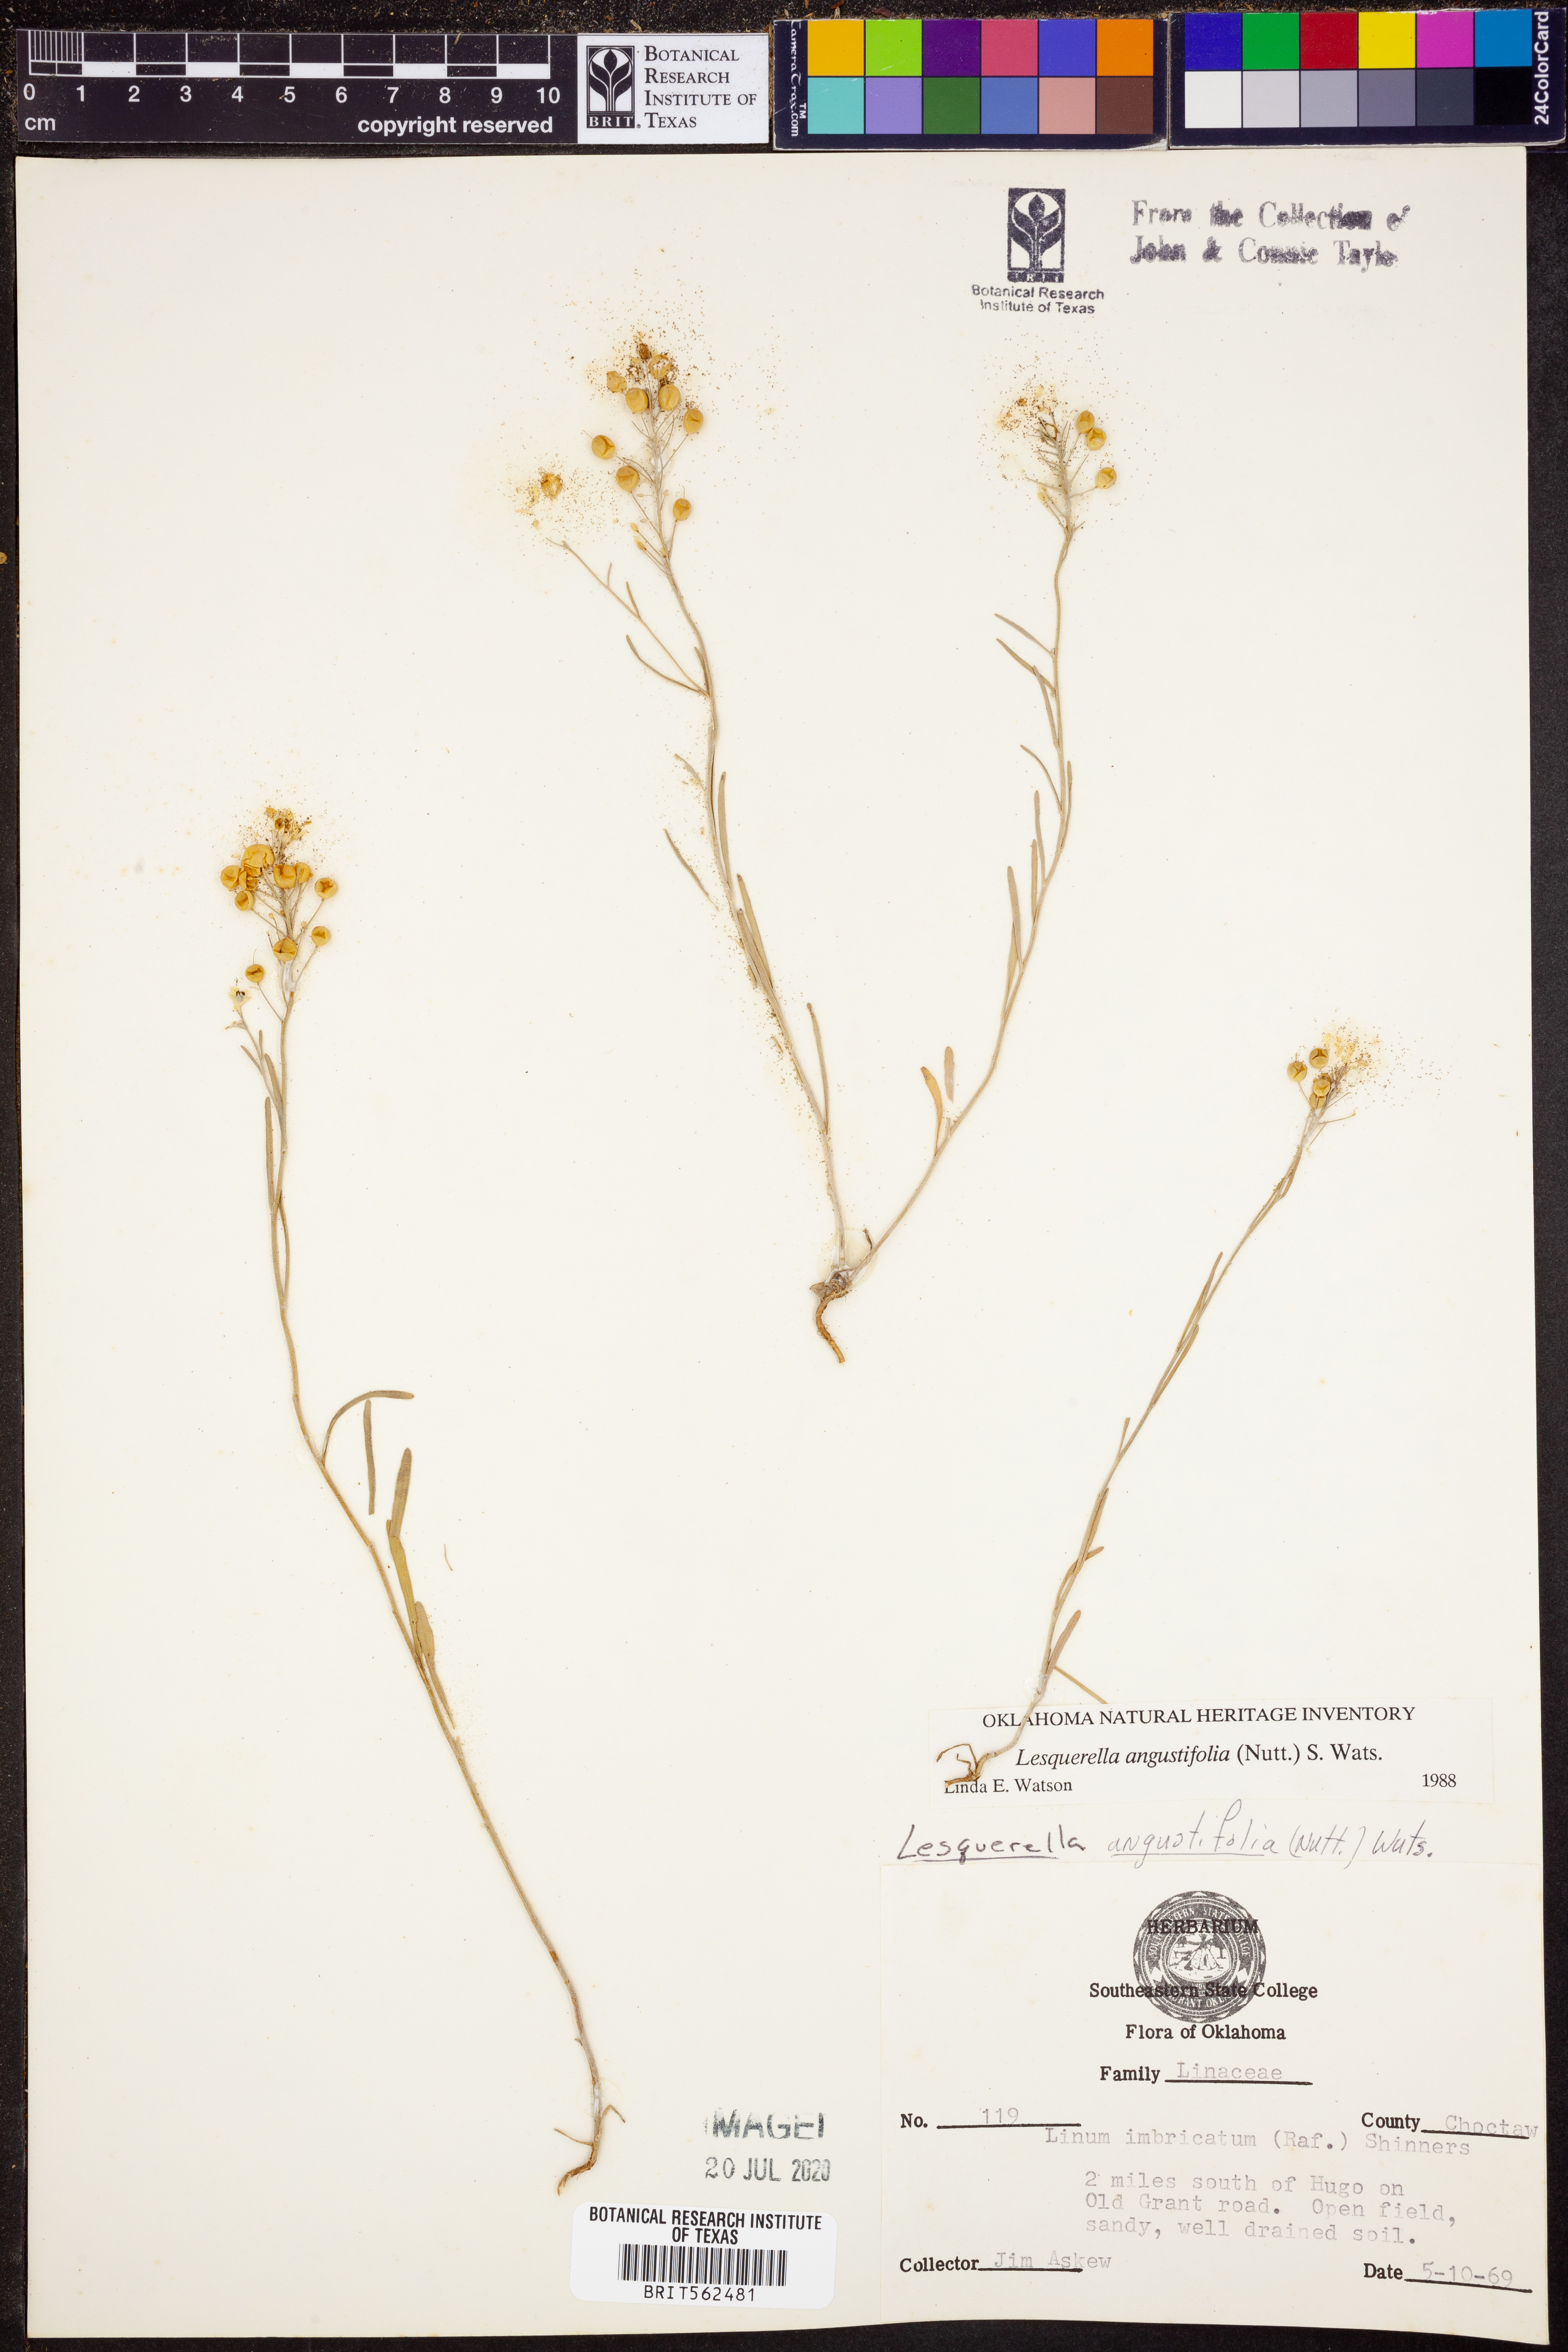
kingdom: Plantae
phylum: Tracheophyta
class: Magnoliopsida
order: Brassicales
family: Brassicaceae
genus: Physaria
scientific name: Physaria angustifolia
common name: Threadleaf bladderpod
